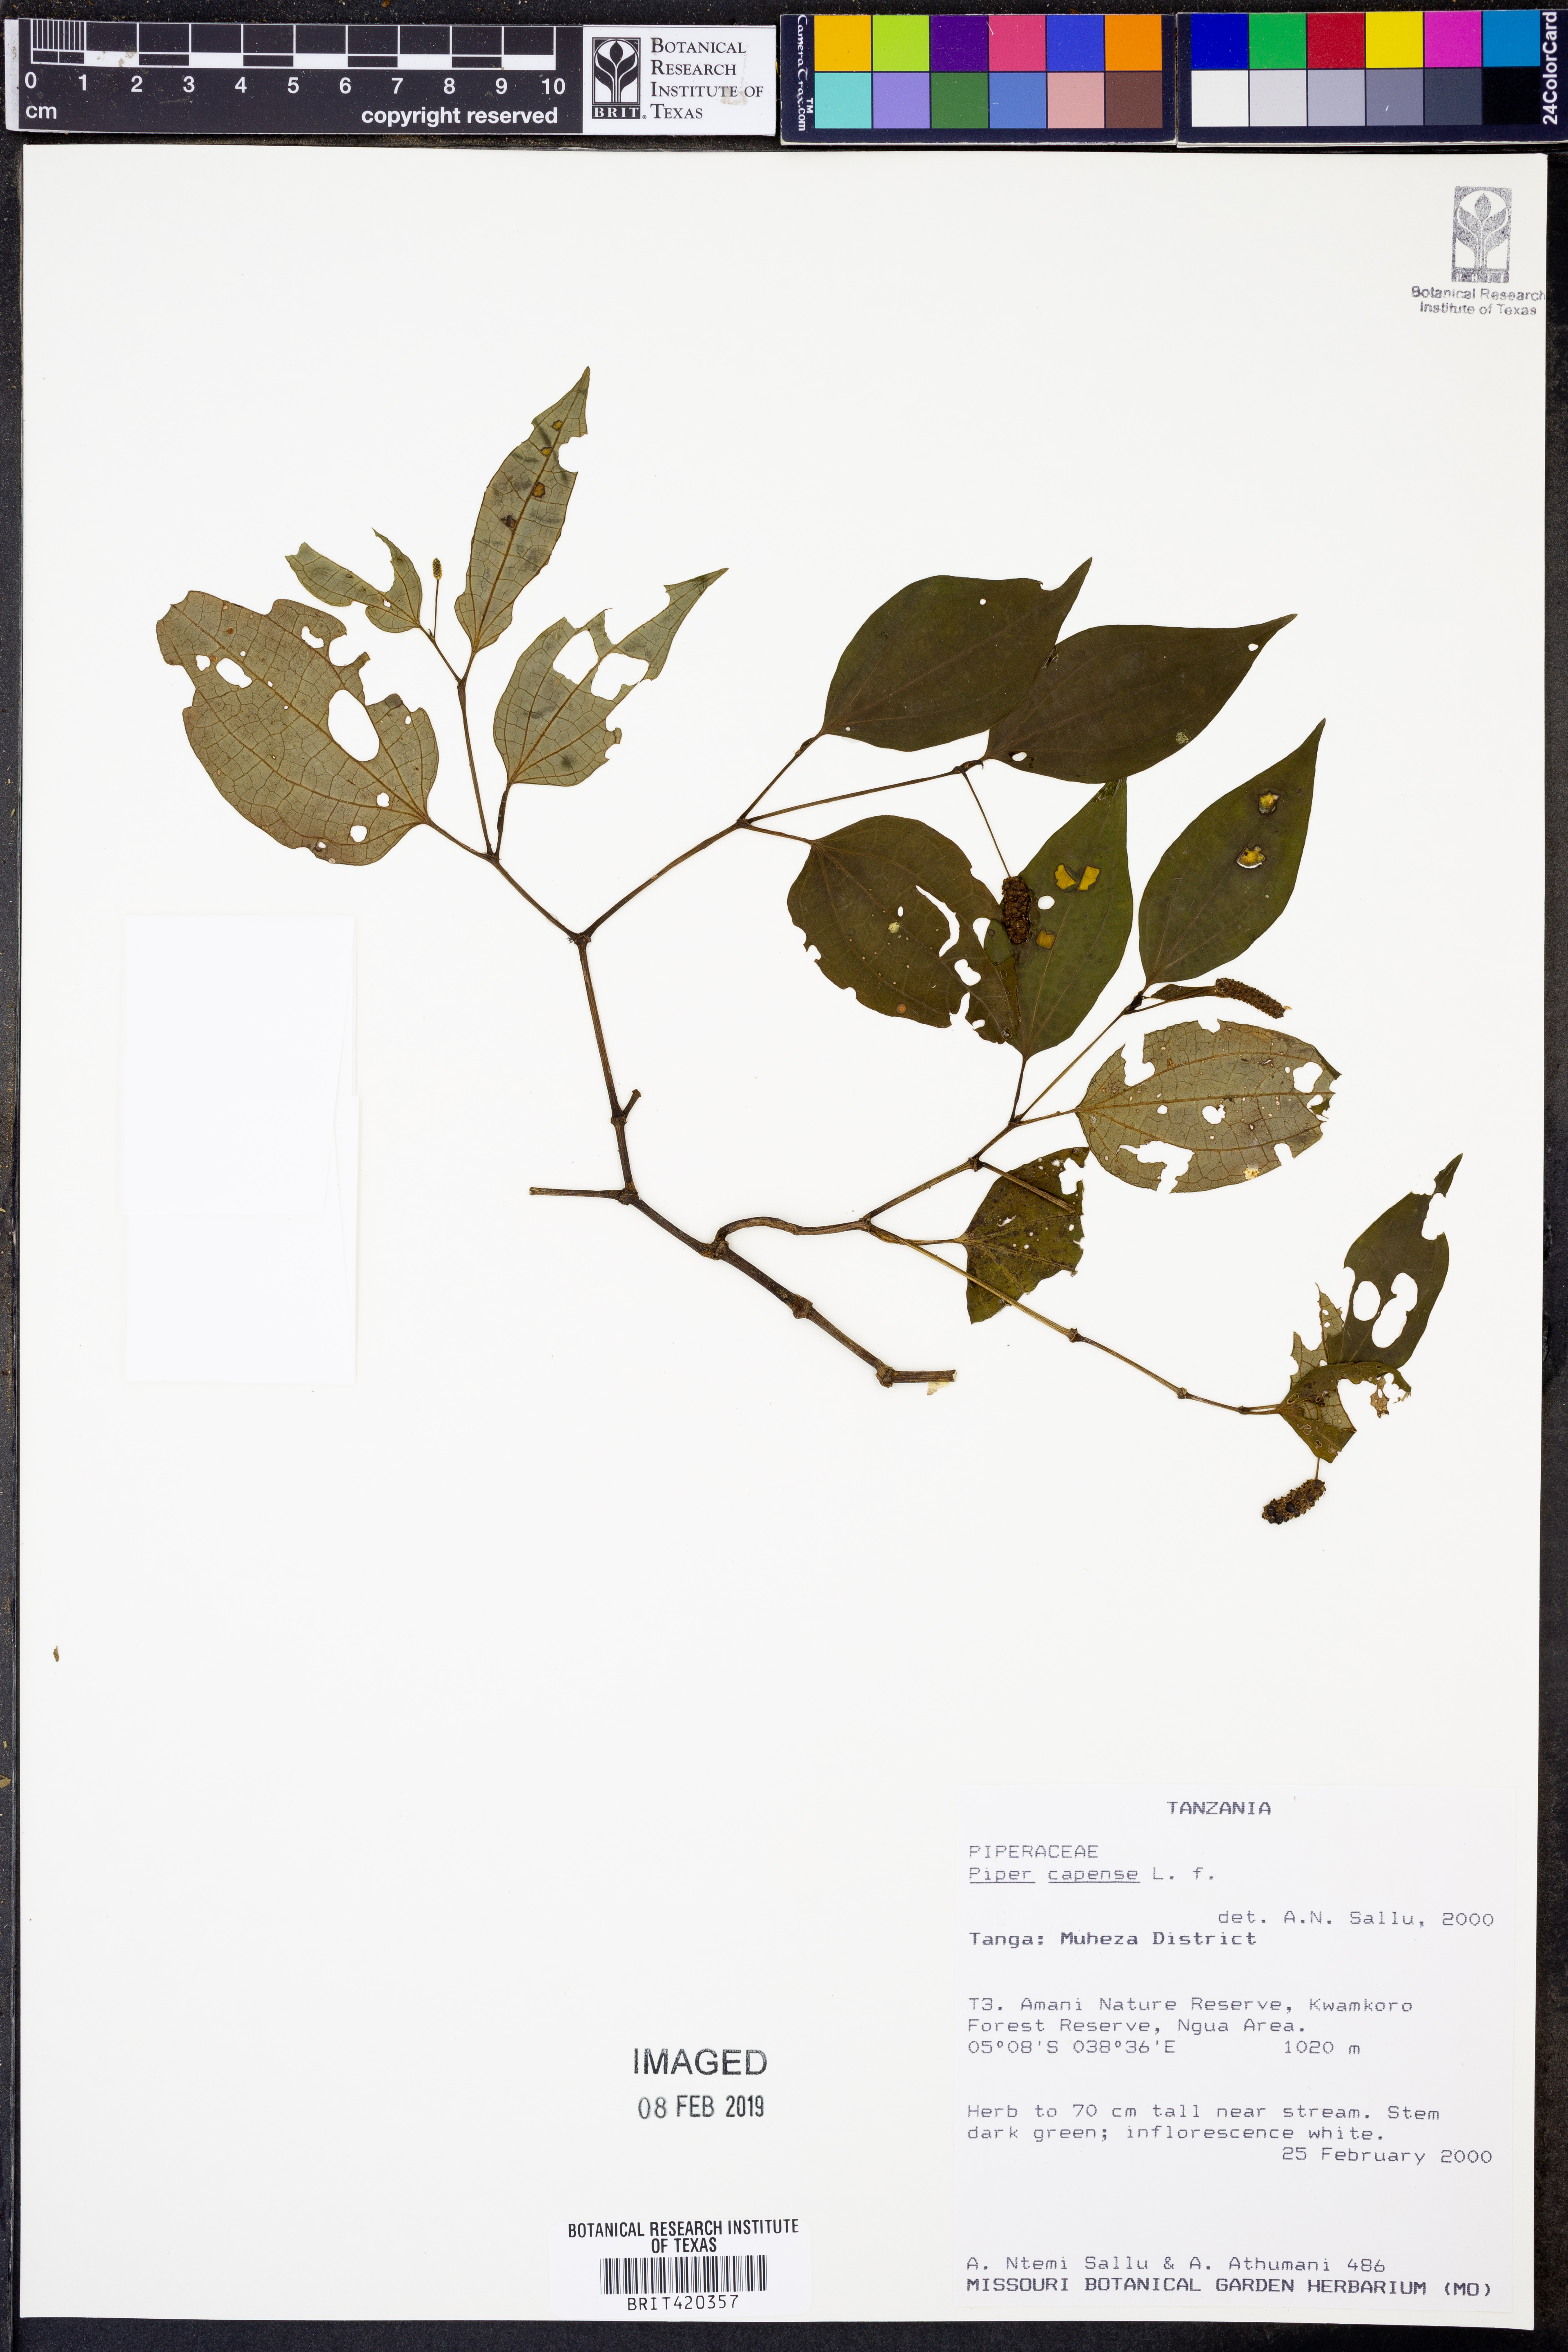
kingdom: Plantae
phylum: Tracheophyta
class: Magnoliopsida
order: Piperales
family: Piperaceae
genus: Piper
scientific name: Piper capense
